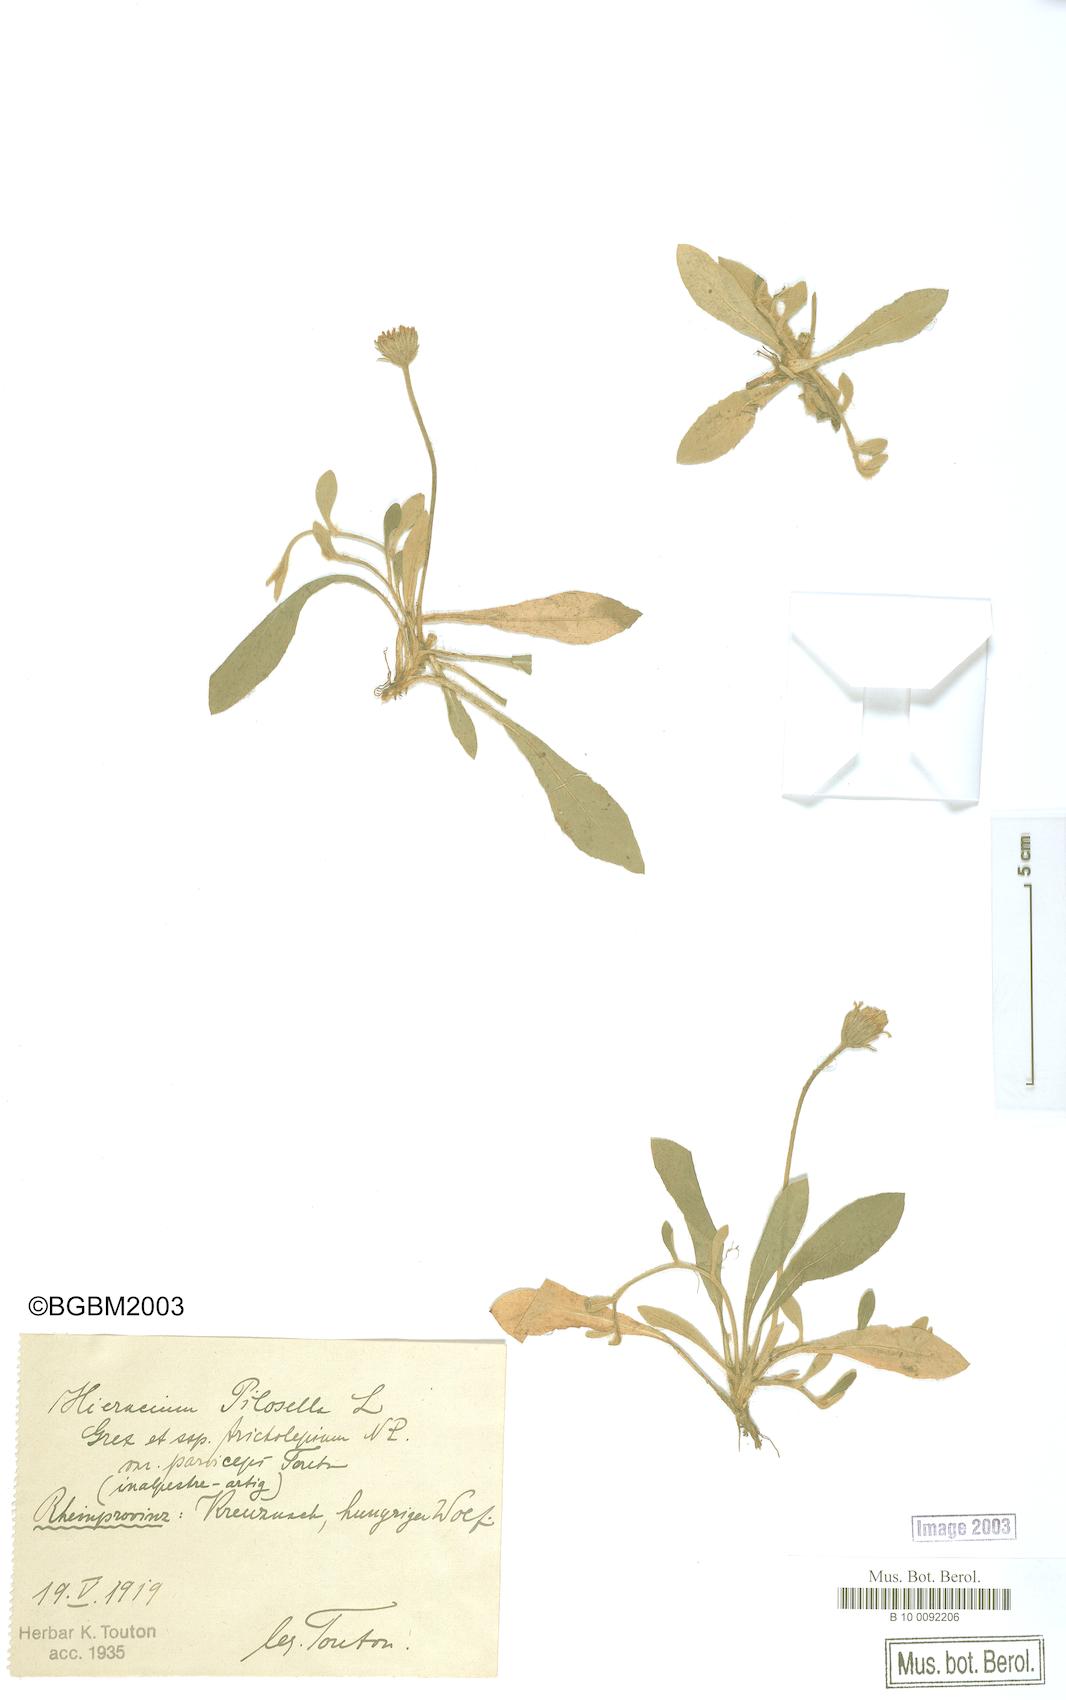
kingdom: Plantae
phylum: Tracheophyta
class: Magnoliopsida
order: Asterales
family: Asteraceae
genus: Pilosella
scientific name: Pilosella officinarum
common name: Mouse-ear hawkweed
